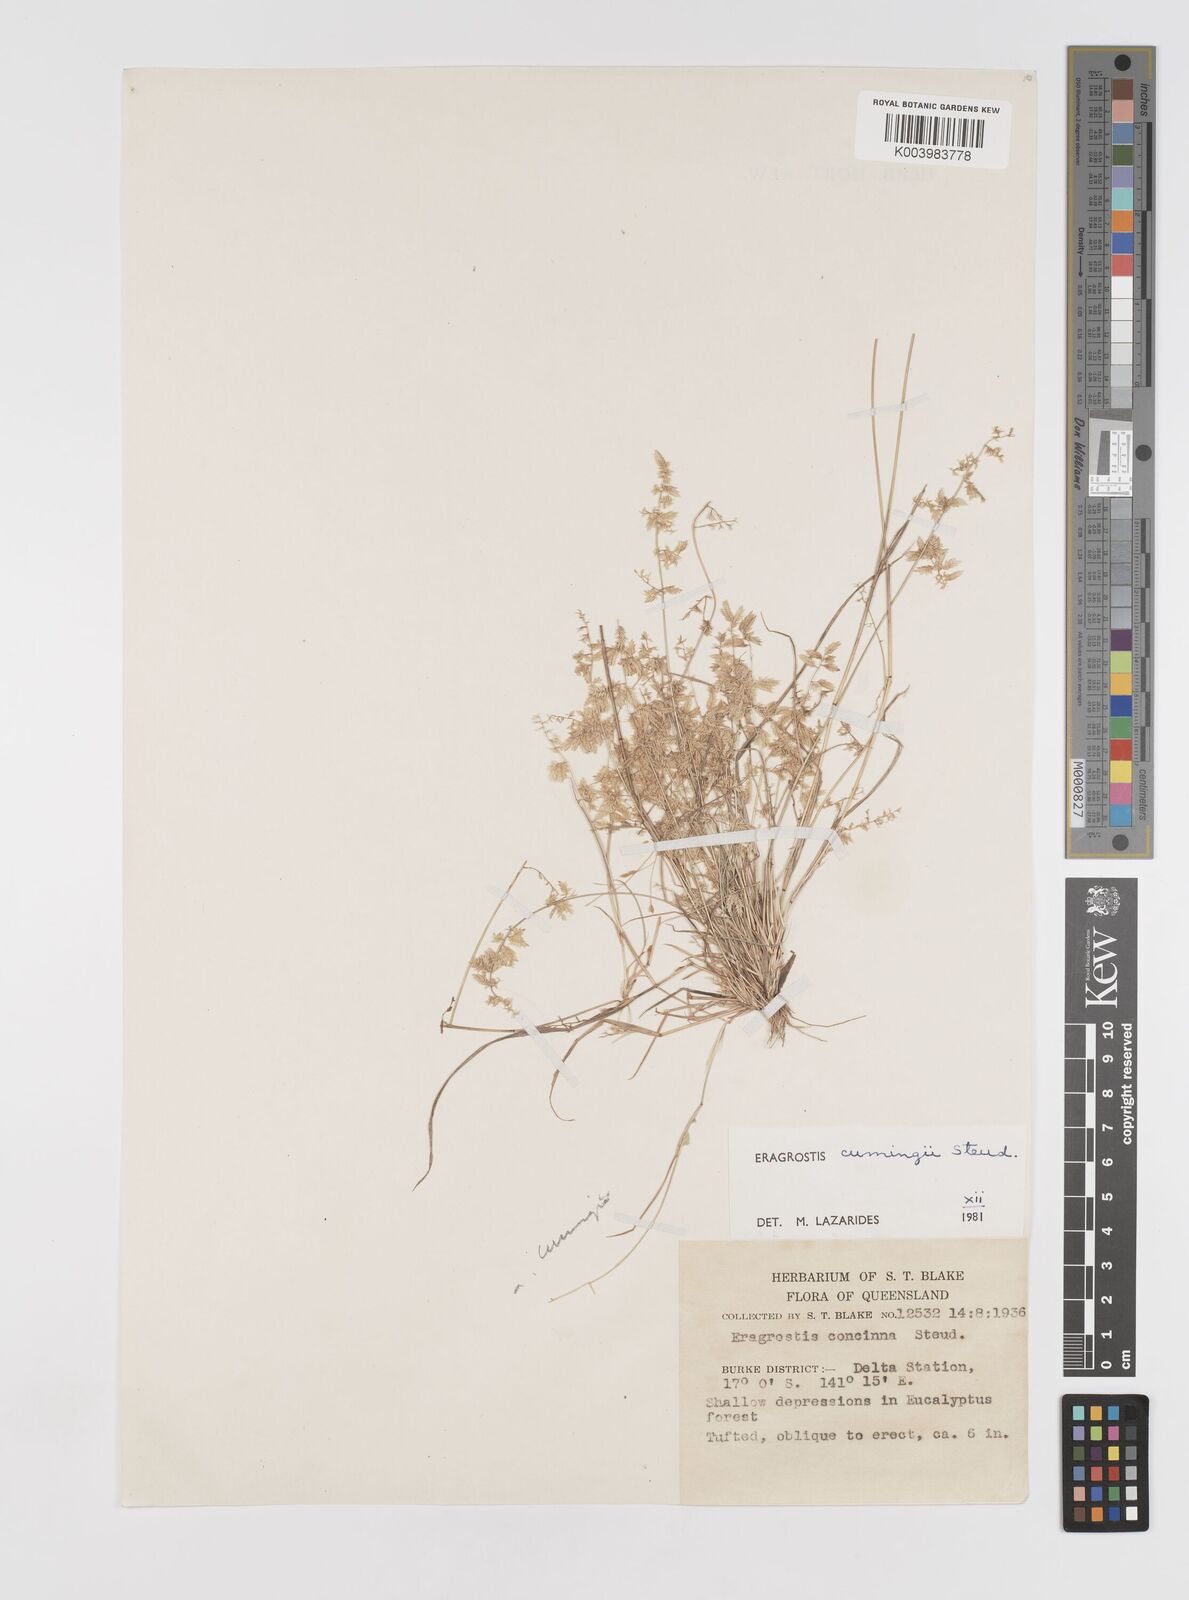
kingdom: Plantae
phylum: Tracheophyta
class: Liliopsida
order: Poales
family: Poaceae
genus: Eragrostis
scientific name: Eragrostis cumingii
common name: Cuming's lovegrass
